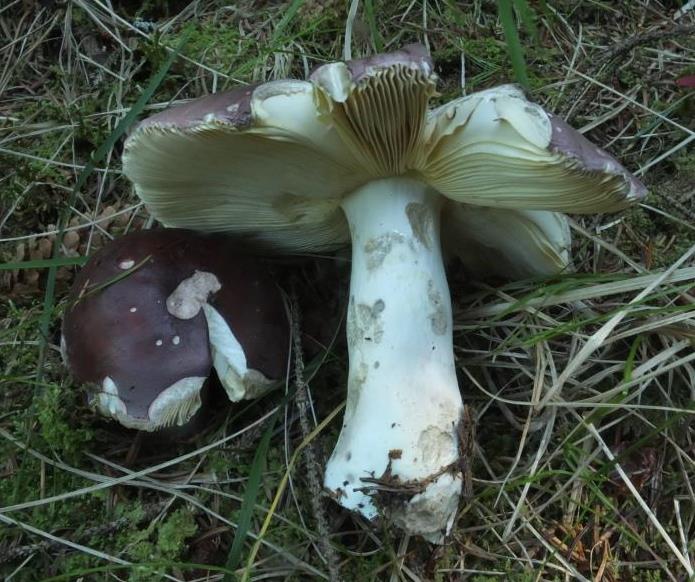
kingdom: Fungi
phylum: Basidiomycota
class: Agaricomycetes
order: Russulales
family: Russulaceae
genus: Russula
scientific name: Russula vinosa
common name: vinrød skørhat
